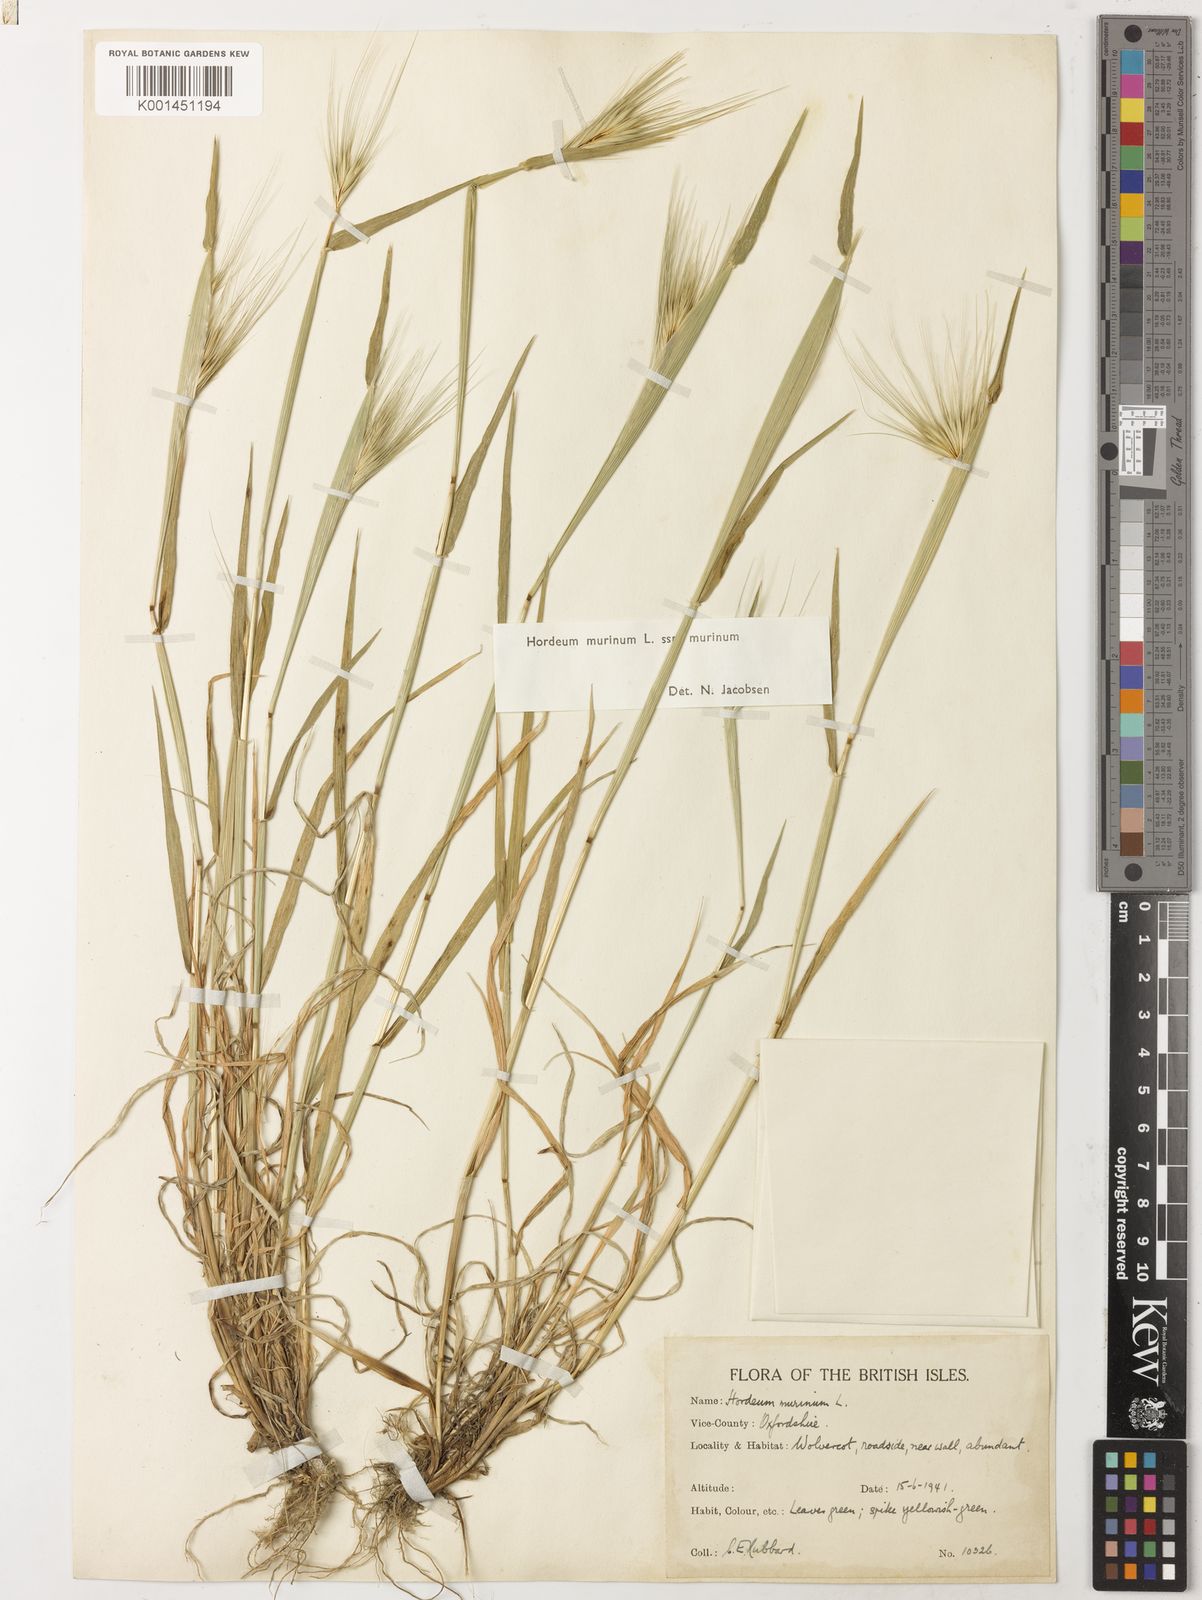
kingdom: Plantae
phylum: Tracheophyta
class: Liliopsida
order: Poales
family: Poaceae
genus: Hordeum
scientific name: Hordeum murinum
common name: Wall barley
